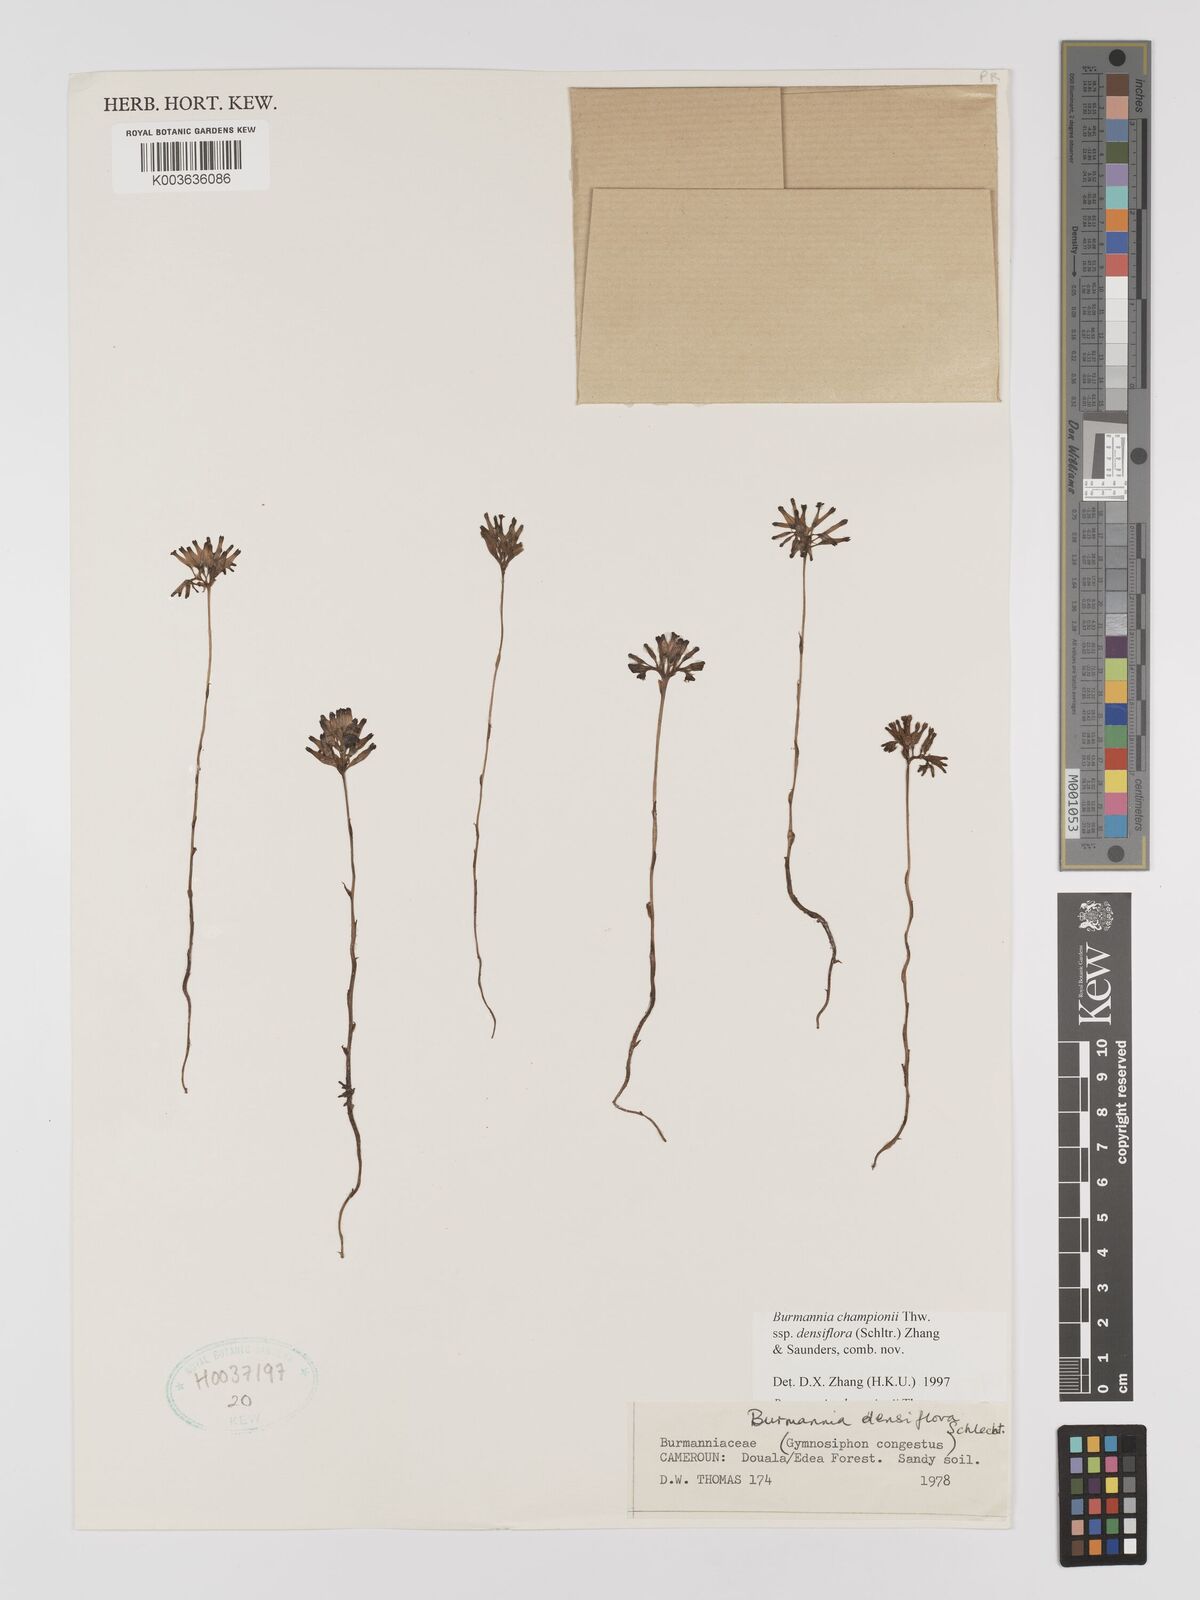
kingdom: Plantae
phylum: Tracheophyta
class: Liliopsida
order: Dioscoreales
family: Burmanniaceae
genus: Burmannia
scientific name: Burmannia hexaptera
